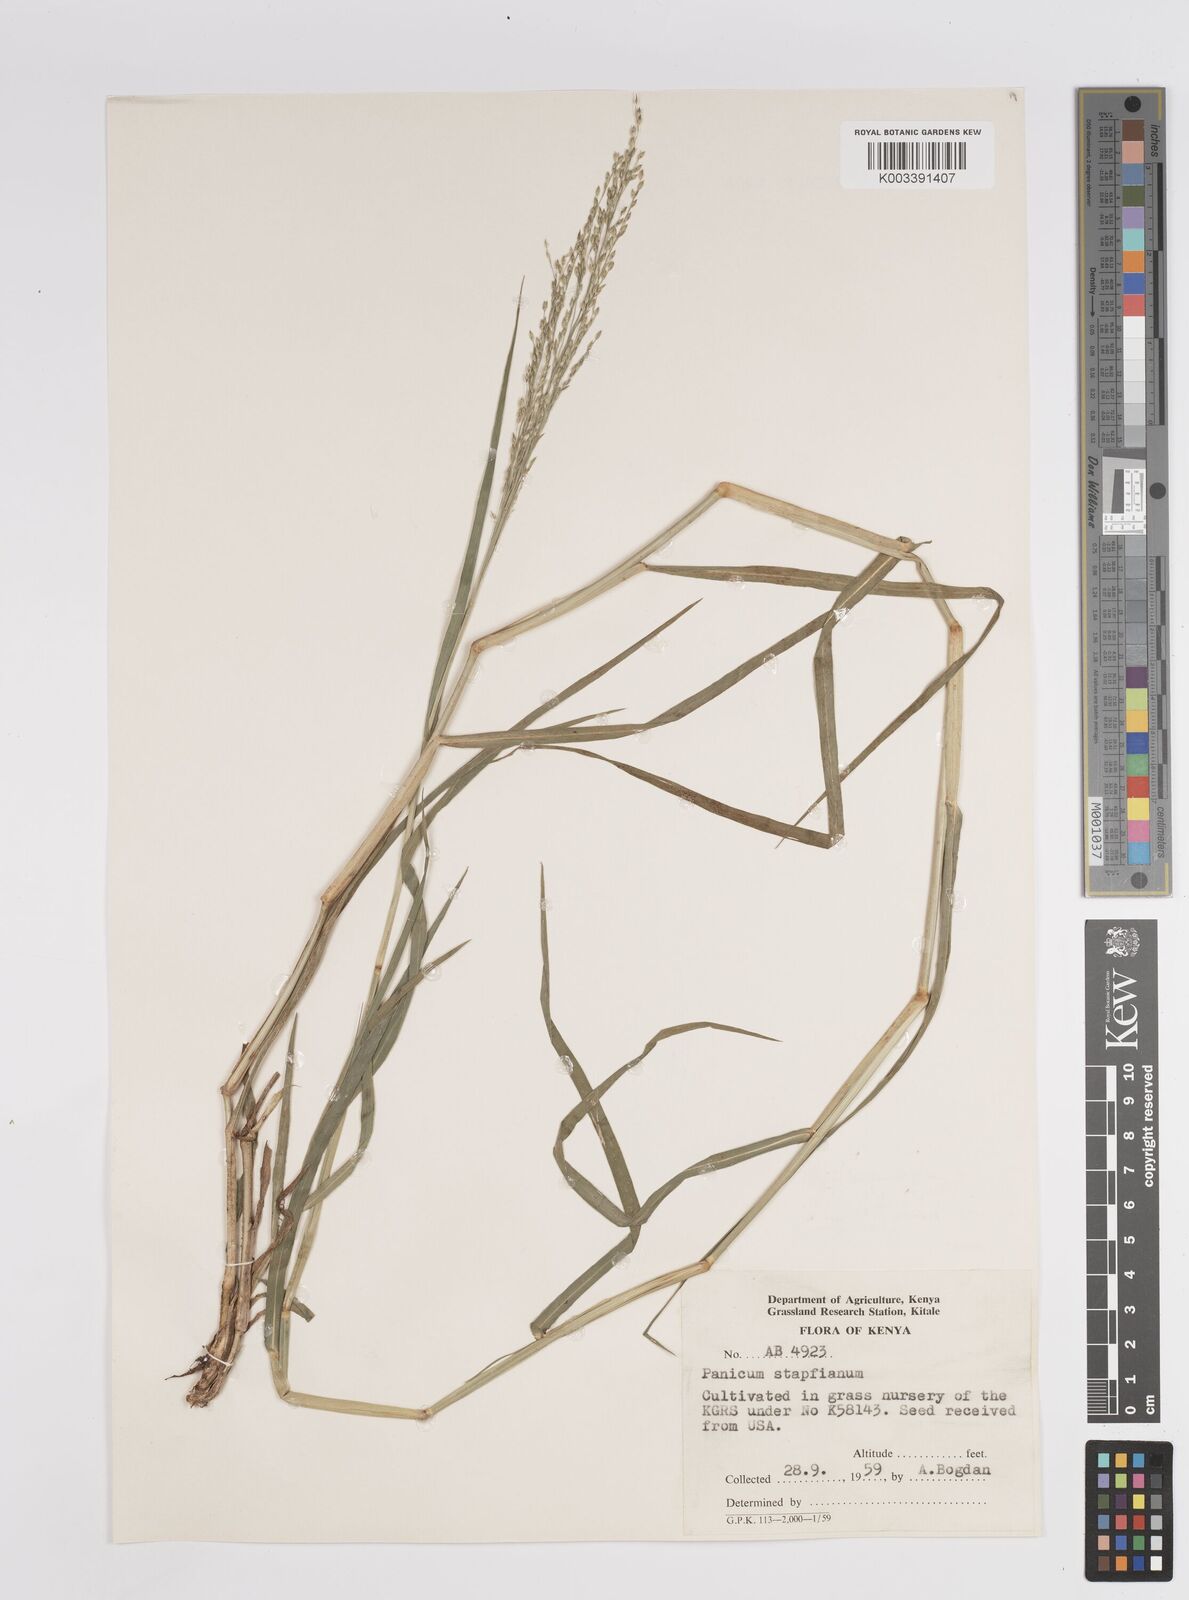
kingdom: Plantae
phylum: Tracheophyta
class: Liliopsida
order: Poales
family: Poaceae
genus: Panicum
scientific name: Panicum
